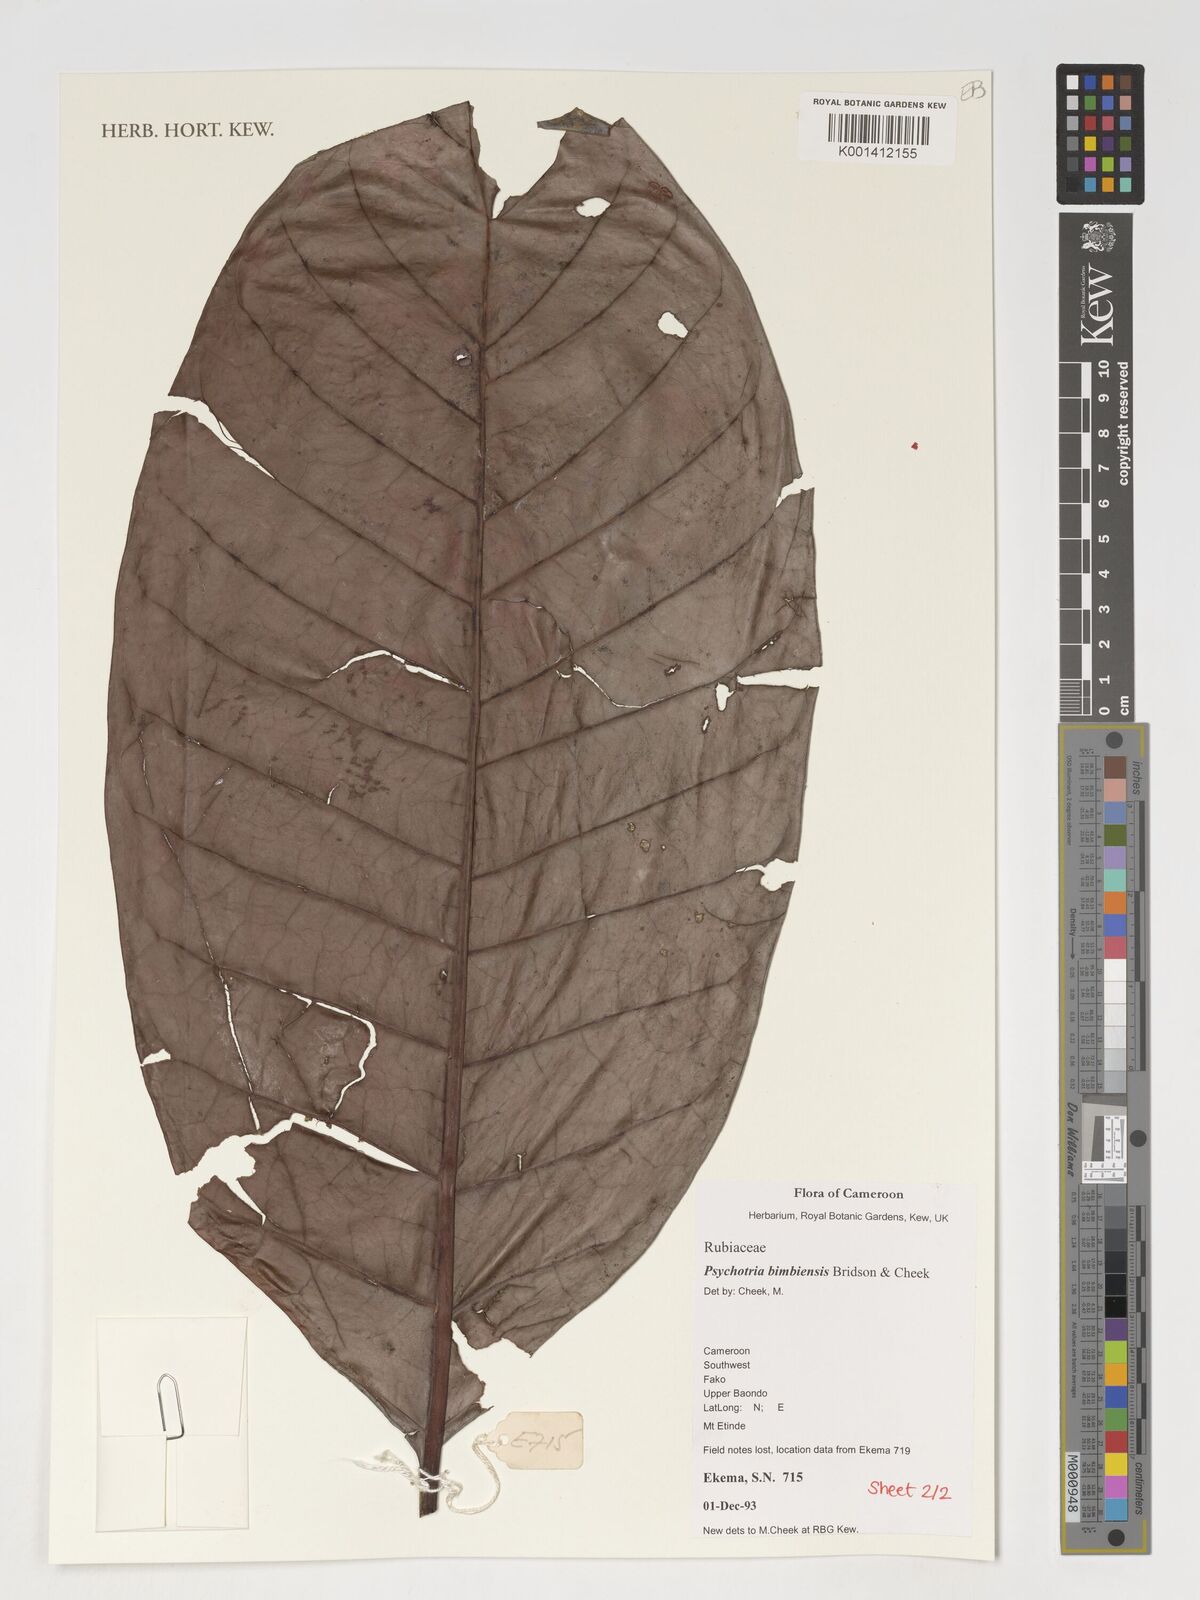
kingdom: Plantae
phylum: Tracheophyta
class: Magnoliopsida
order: Gentianales
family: Rubiaceae
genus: Psychotria
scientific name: Psychotria bimbiensis
